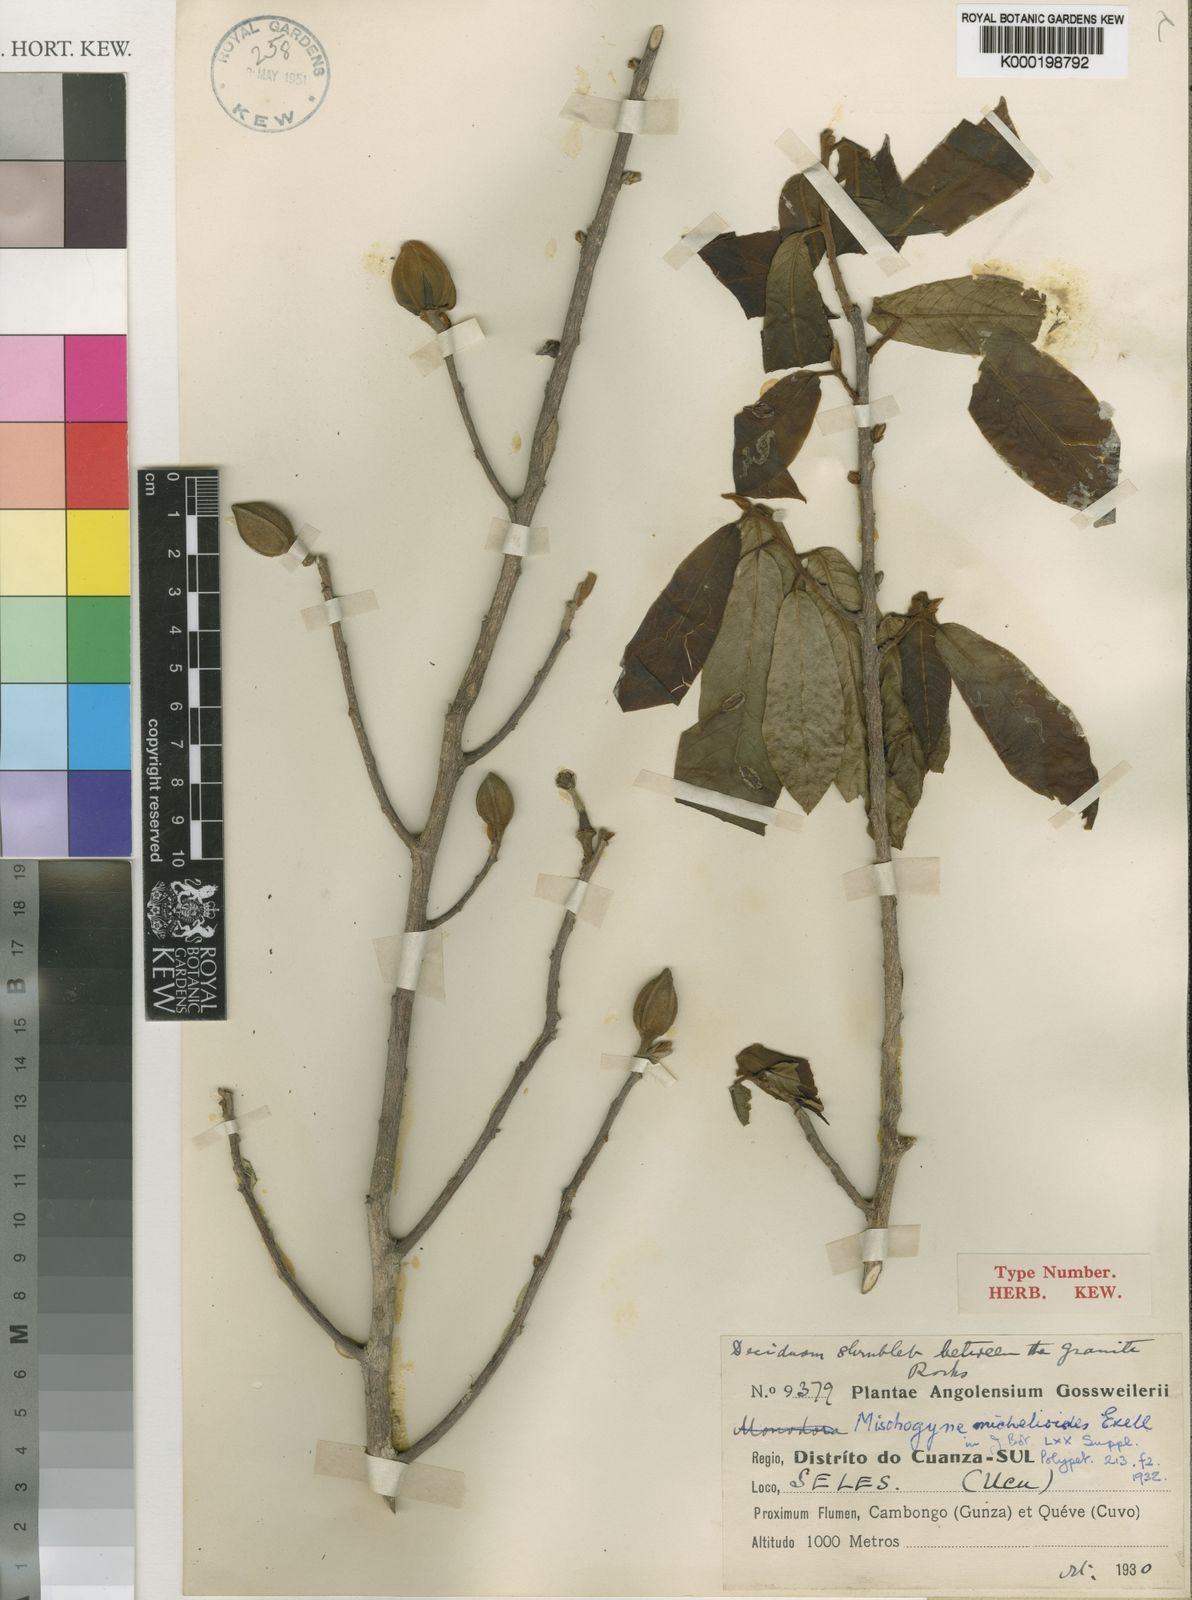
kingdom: Plantae
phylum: Tracheophyta
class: Magnoliopsida
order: Magnoliales
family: Annonaceae
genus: Mischogyne
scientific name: Mischogyne michelioides
